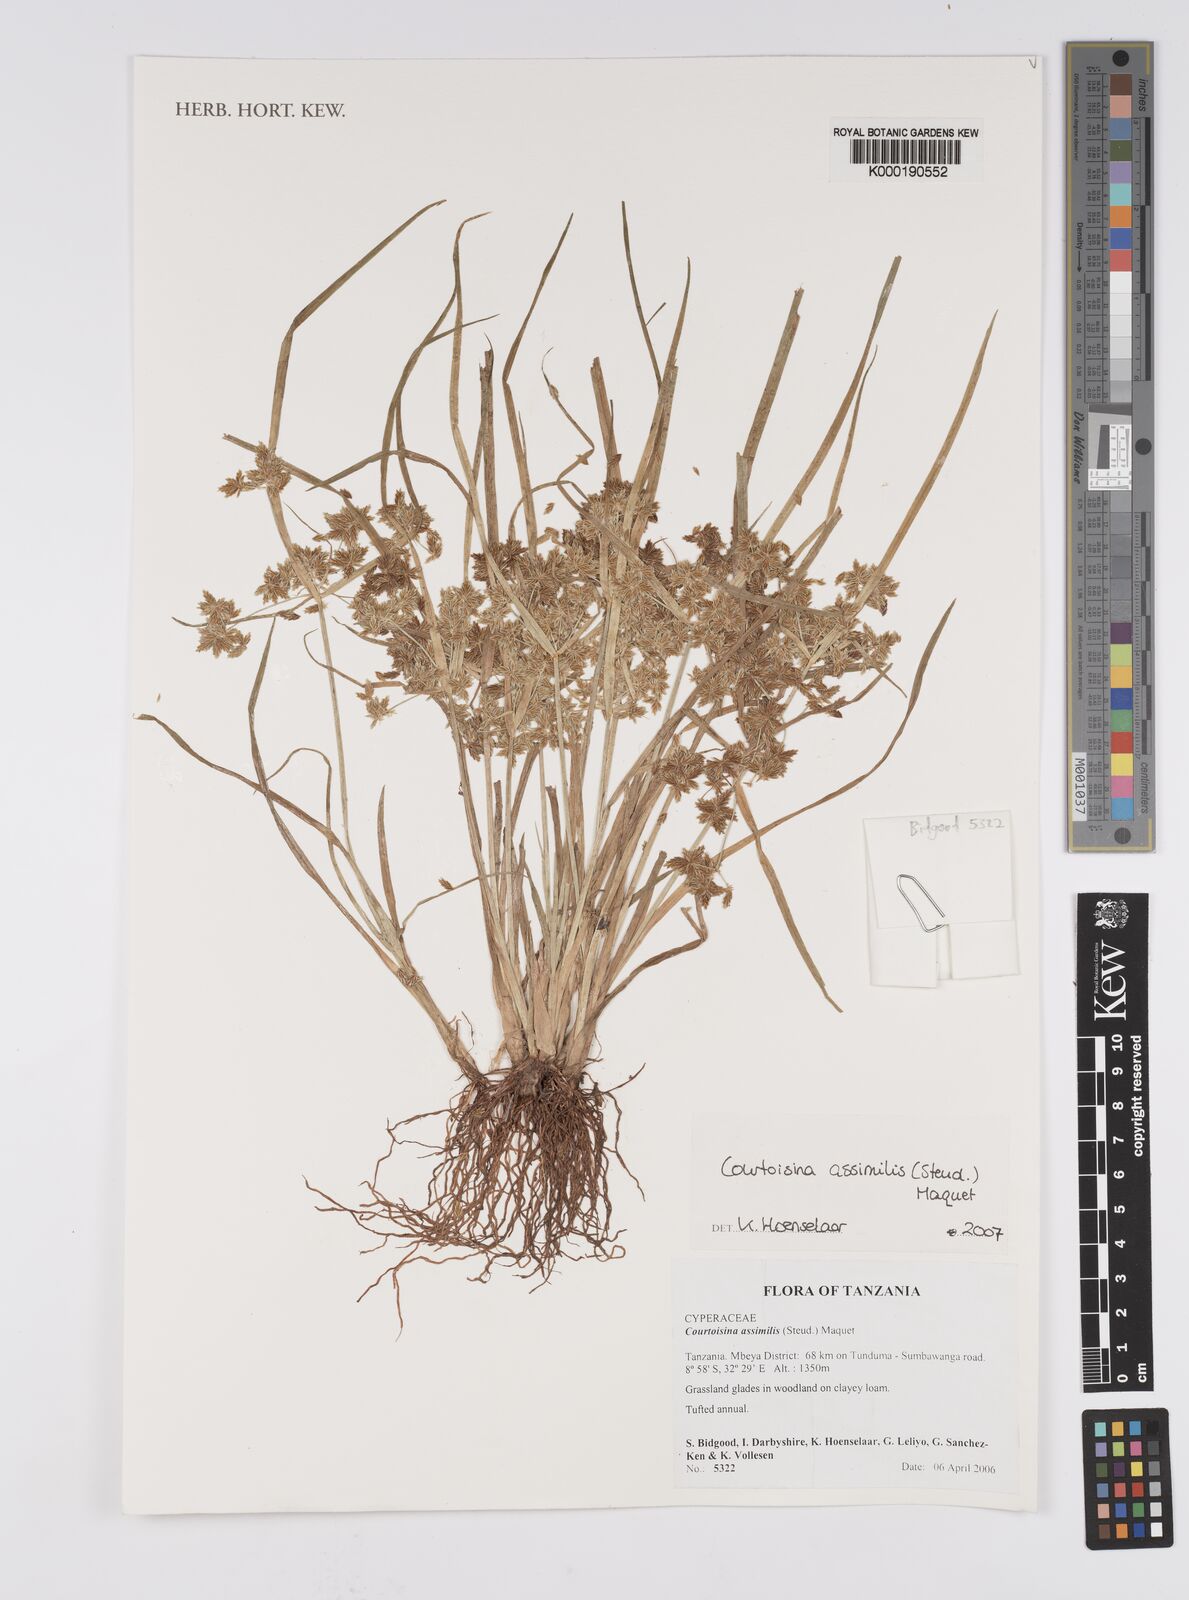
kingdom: Plantae
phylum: Tracheophyta
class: Liliopsida
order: Poales
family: Cyperaceae
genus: Cyperus
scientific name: Cyperus assimilis
